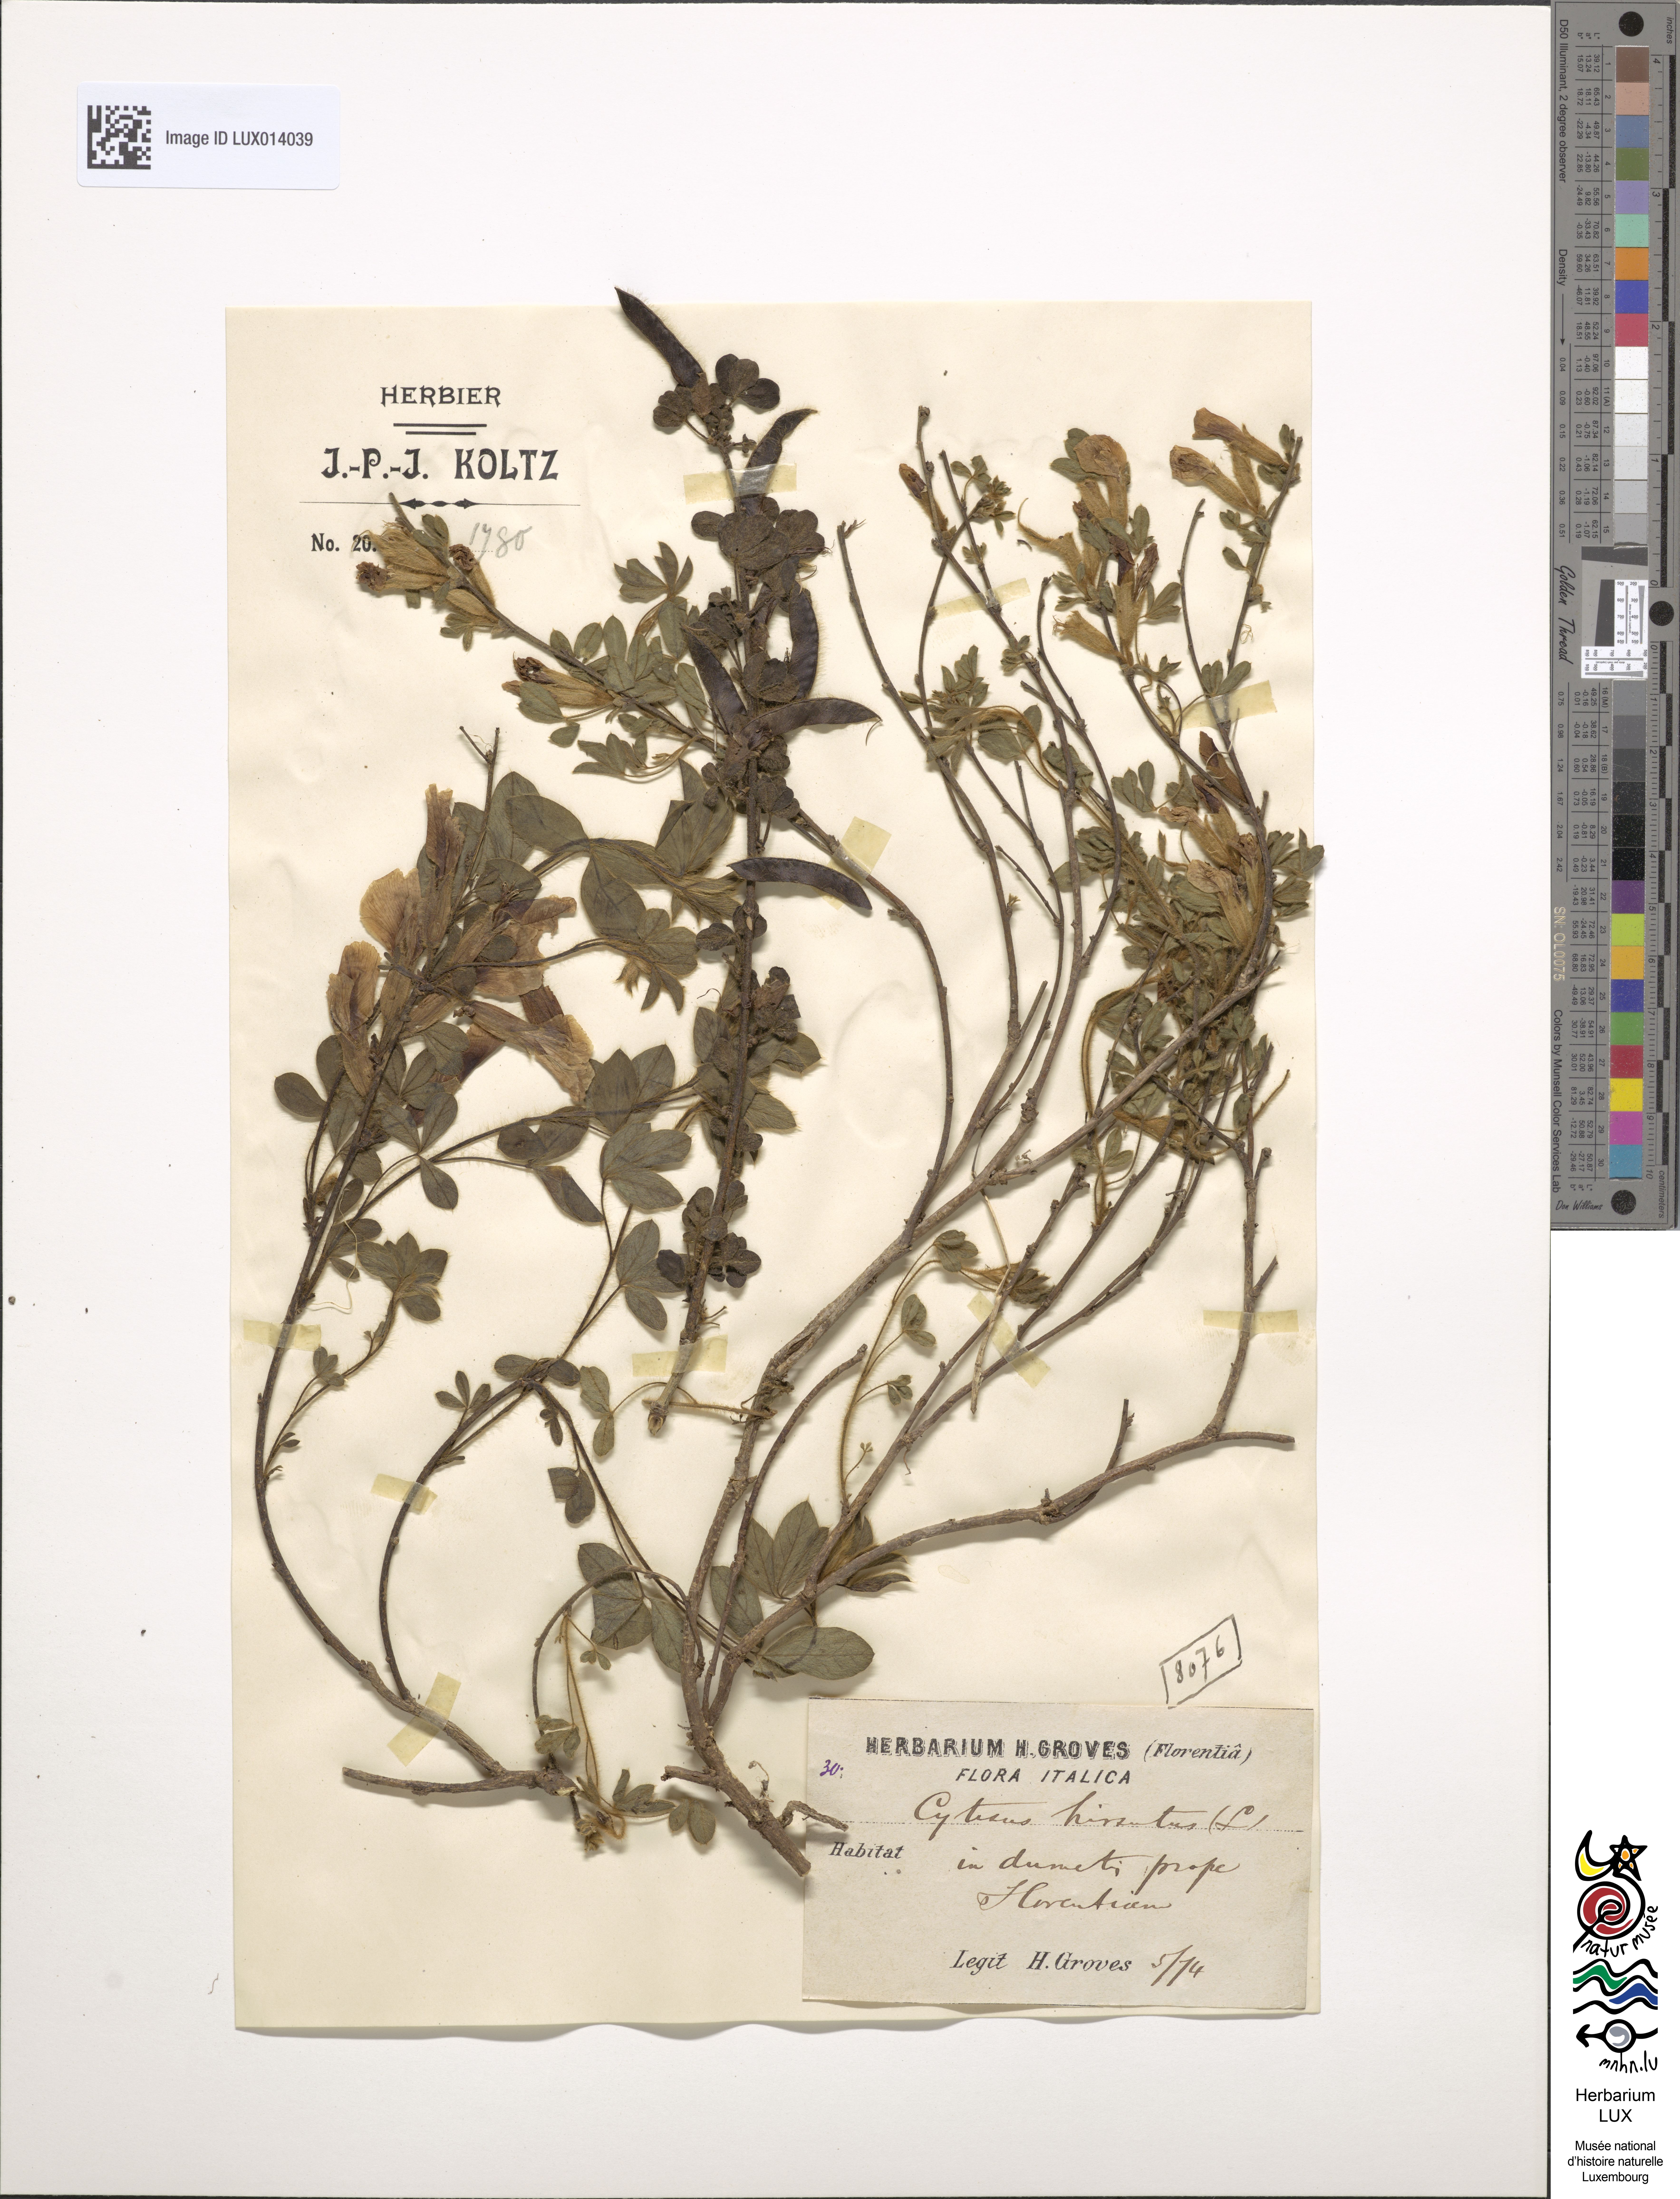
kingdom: Plantae
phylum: Tracheophyta
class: Magnoliopsida
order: Fabales
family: Fabaceae
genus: Chamaecytisus
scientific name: Chamaecytisus hirsutus
